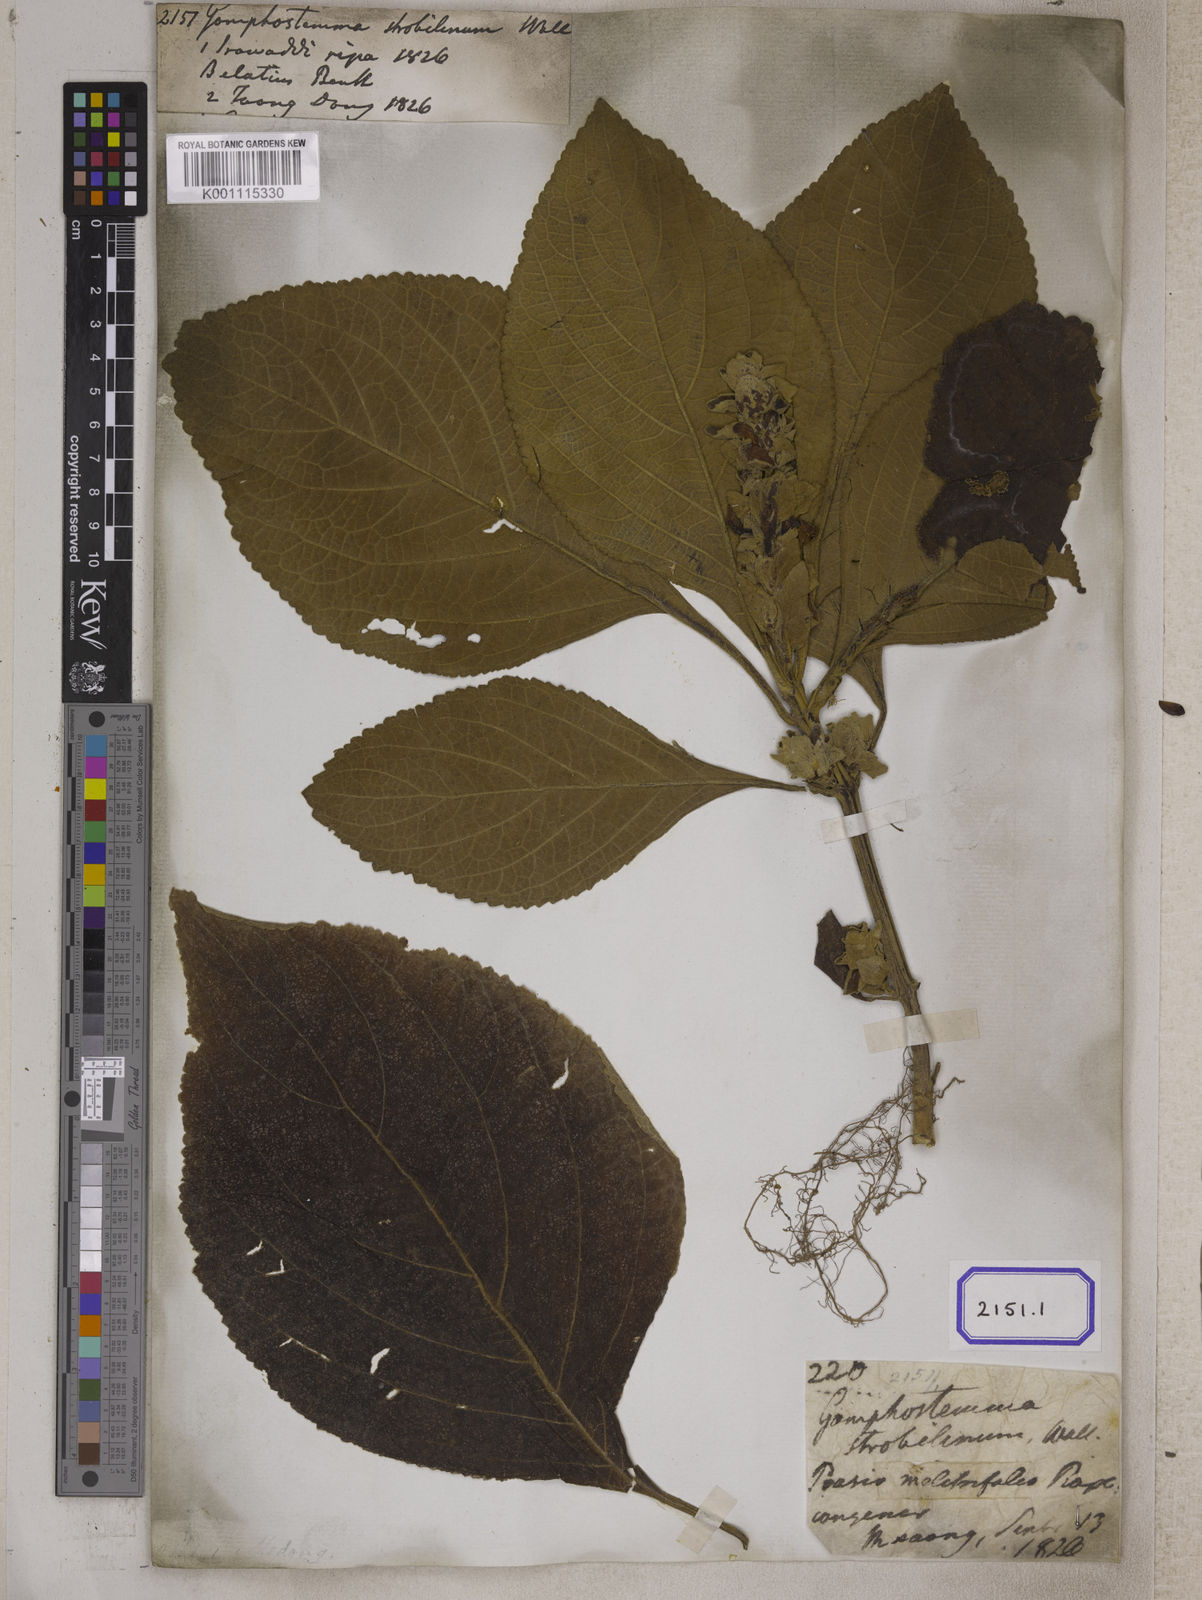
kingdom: Plantae
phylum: Tracheophyta
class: Magnoliopsida
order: Lamiales
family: Lamiaceae
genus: Gomphostemma
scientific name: Gomphostemma
